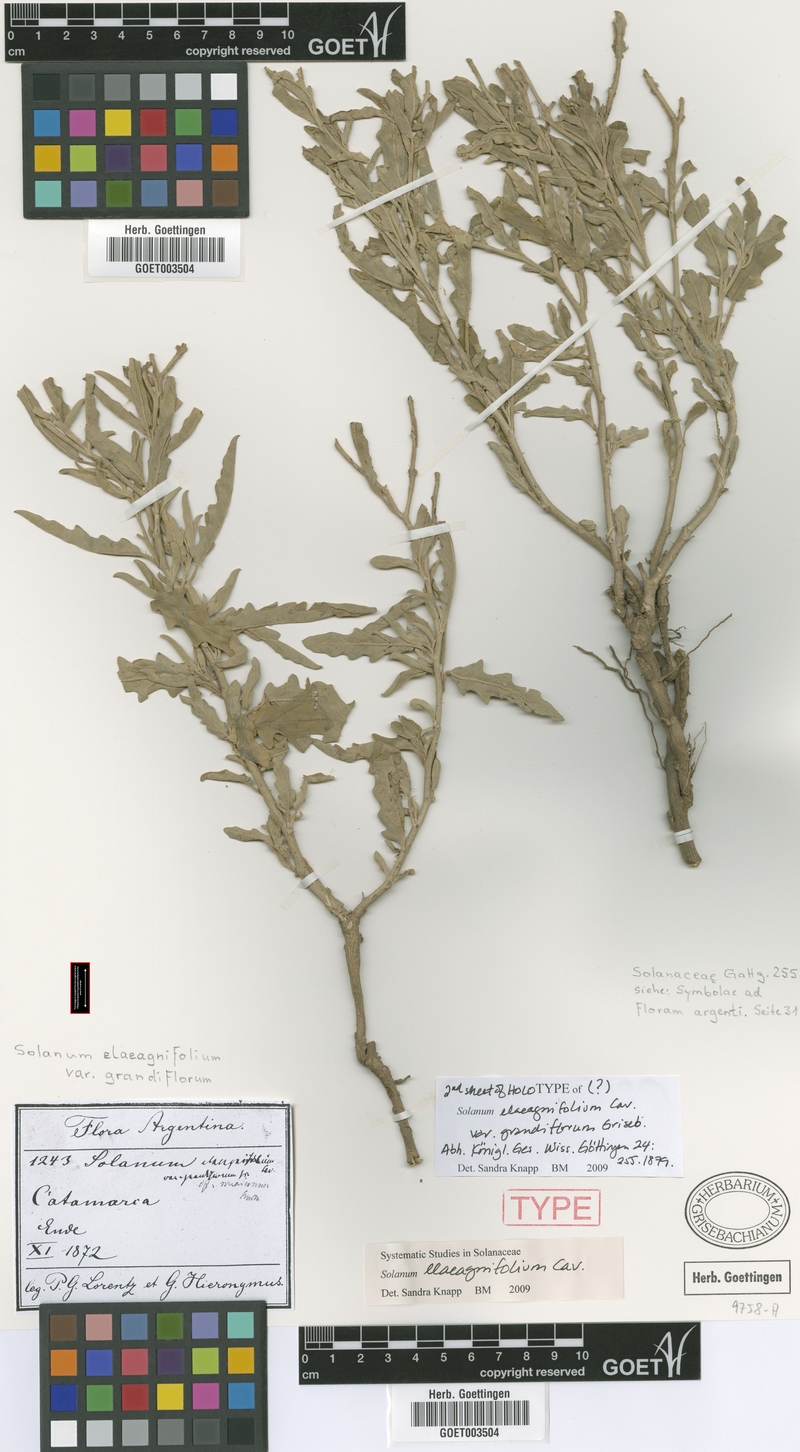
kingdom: Plantae
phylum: Tracheophyta
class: Magnoliopsida
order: Solanales
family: Solanaceae
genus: Solanum
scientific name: Solanum elaeagnifolium
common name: Silverleaf nightshade
